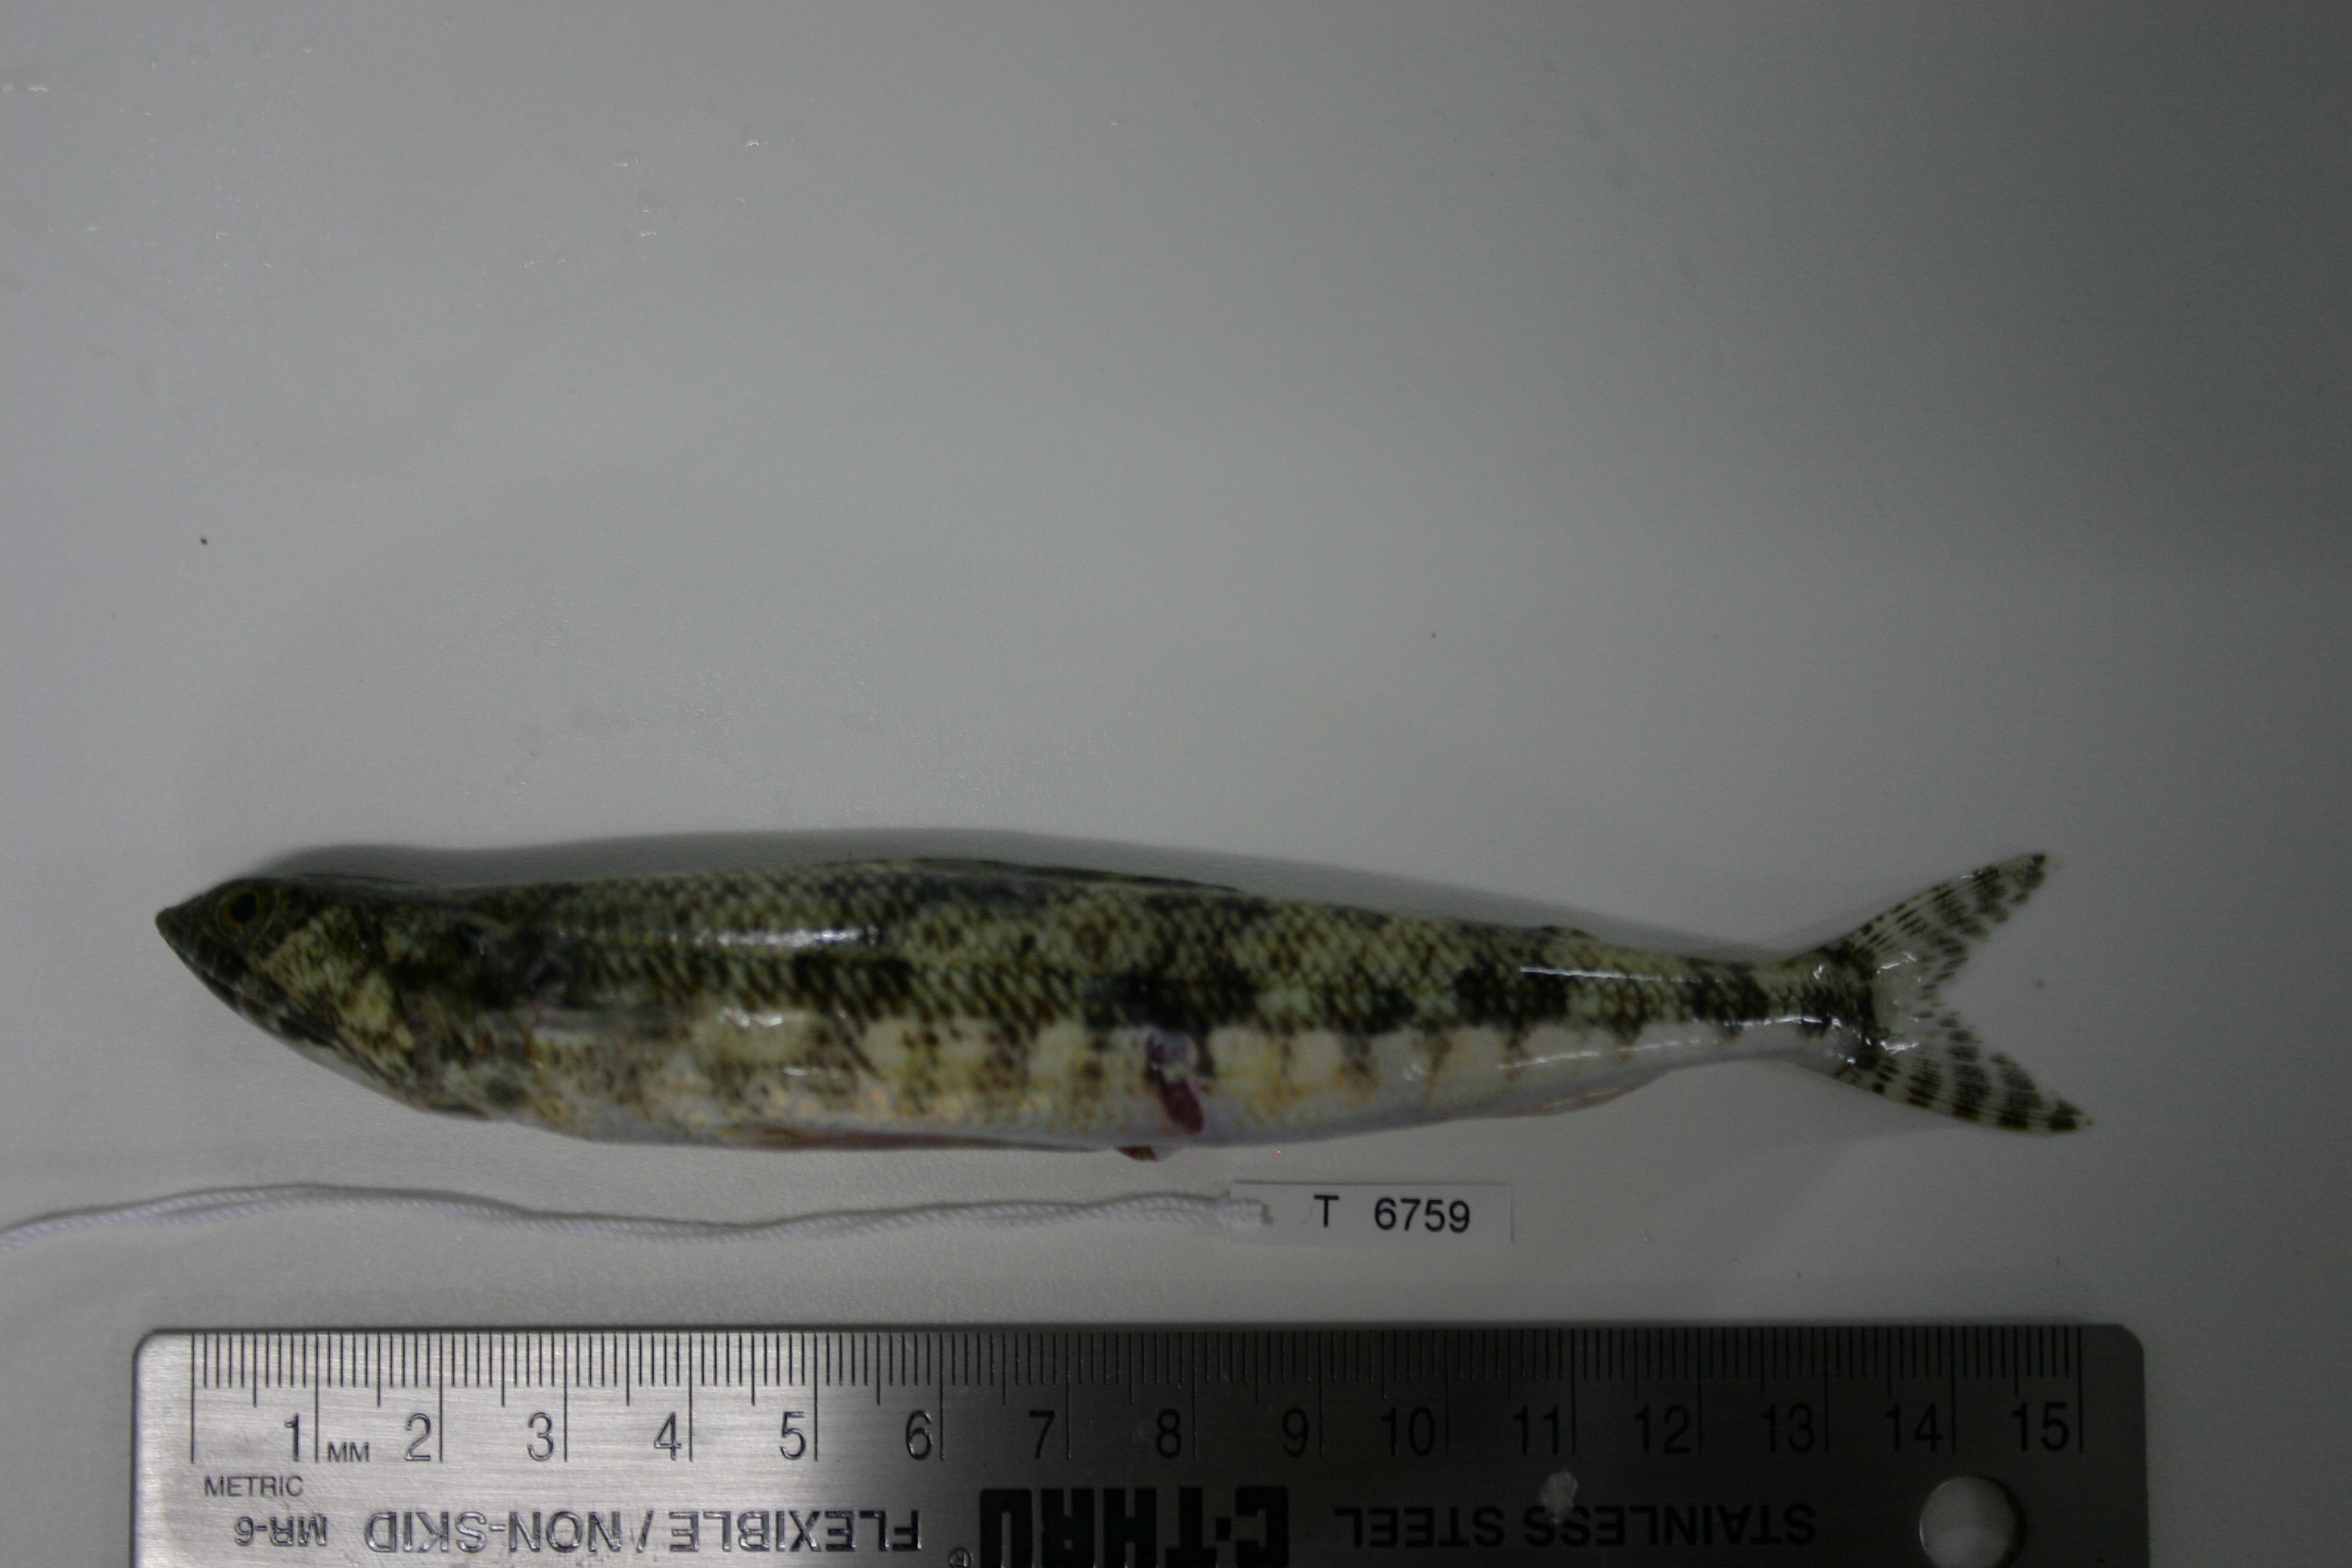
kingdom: Animalia
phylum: Chordata
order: Aulopiformes
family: Synodontidae
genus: Synodus
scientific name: Synodus variegatus
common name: Variegated lizardfish
